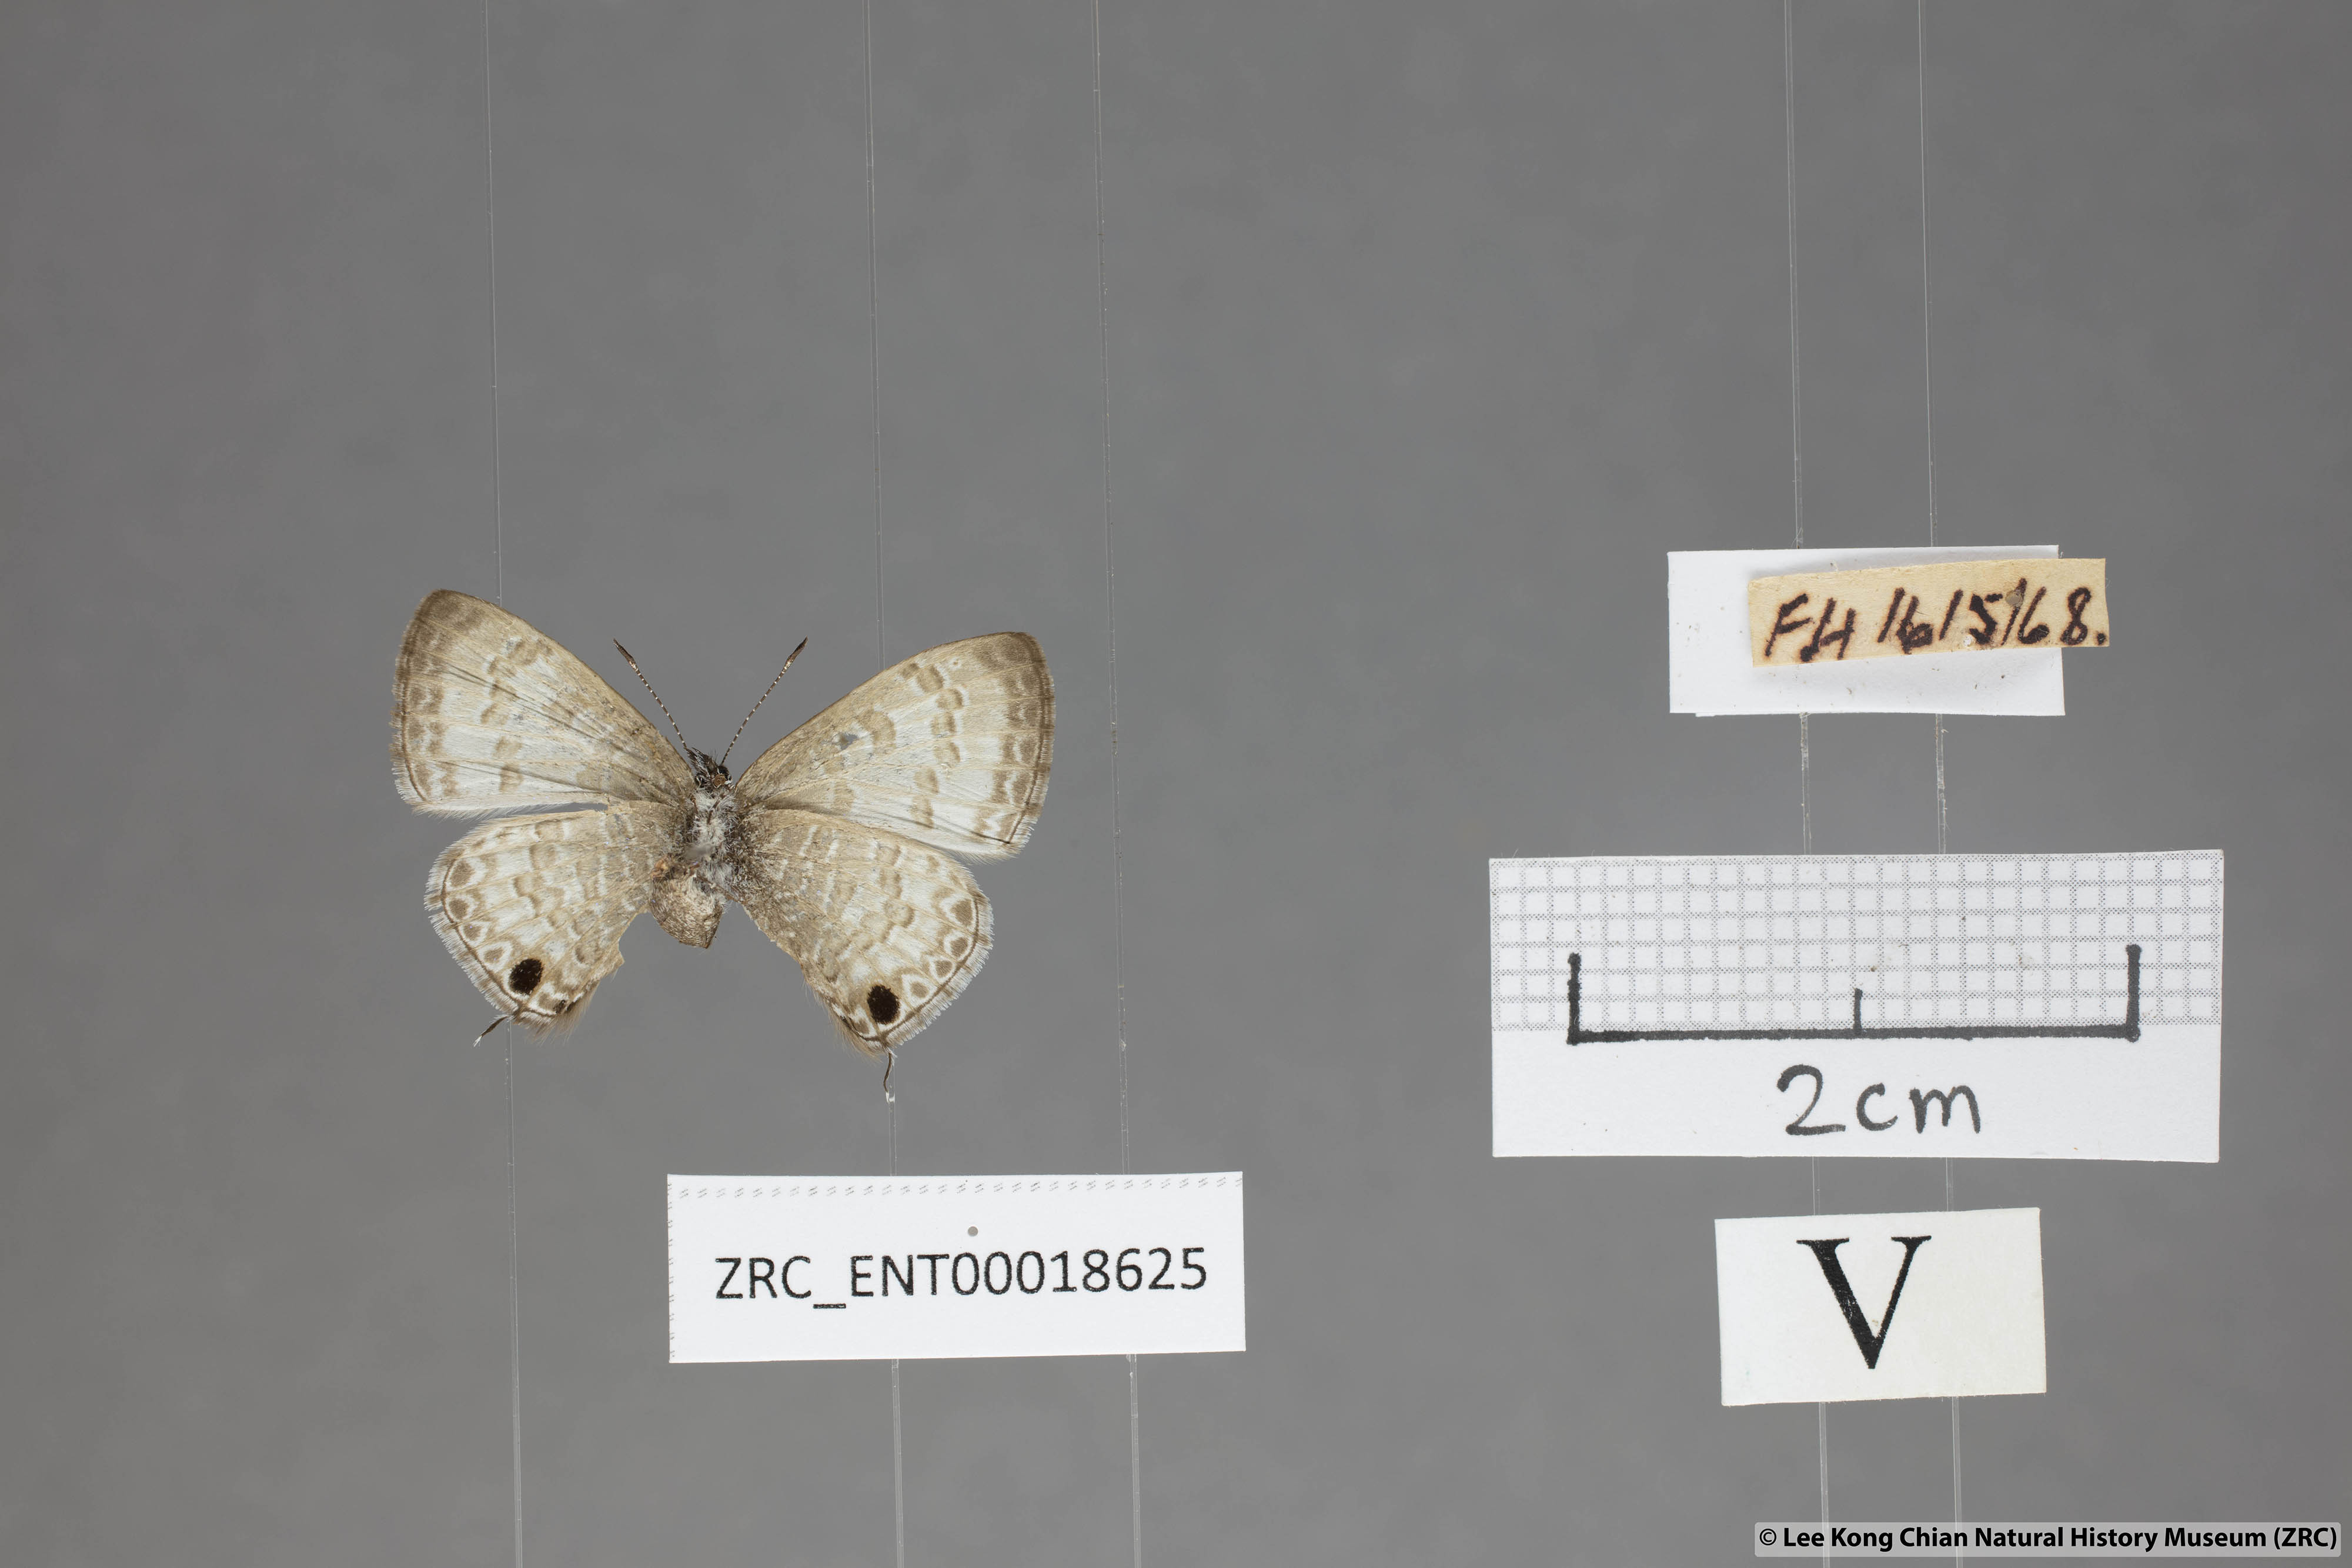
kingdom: Animalia
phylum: Arthropoda
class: Insecta
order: Lepidoptera
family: Lycaenidae
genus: Prosotas
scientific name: Prosotas nelides
